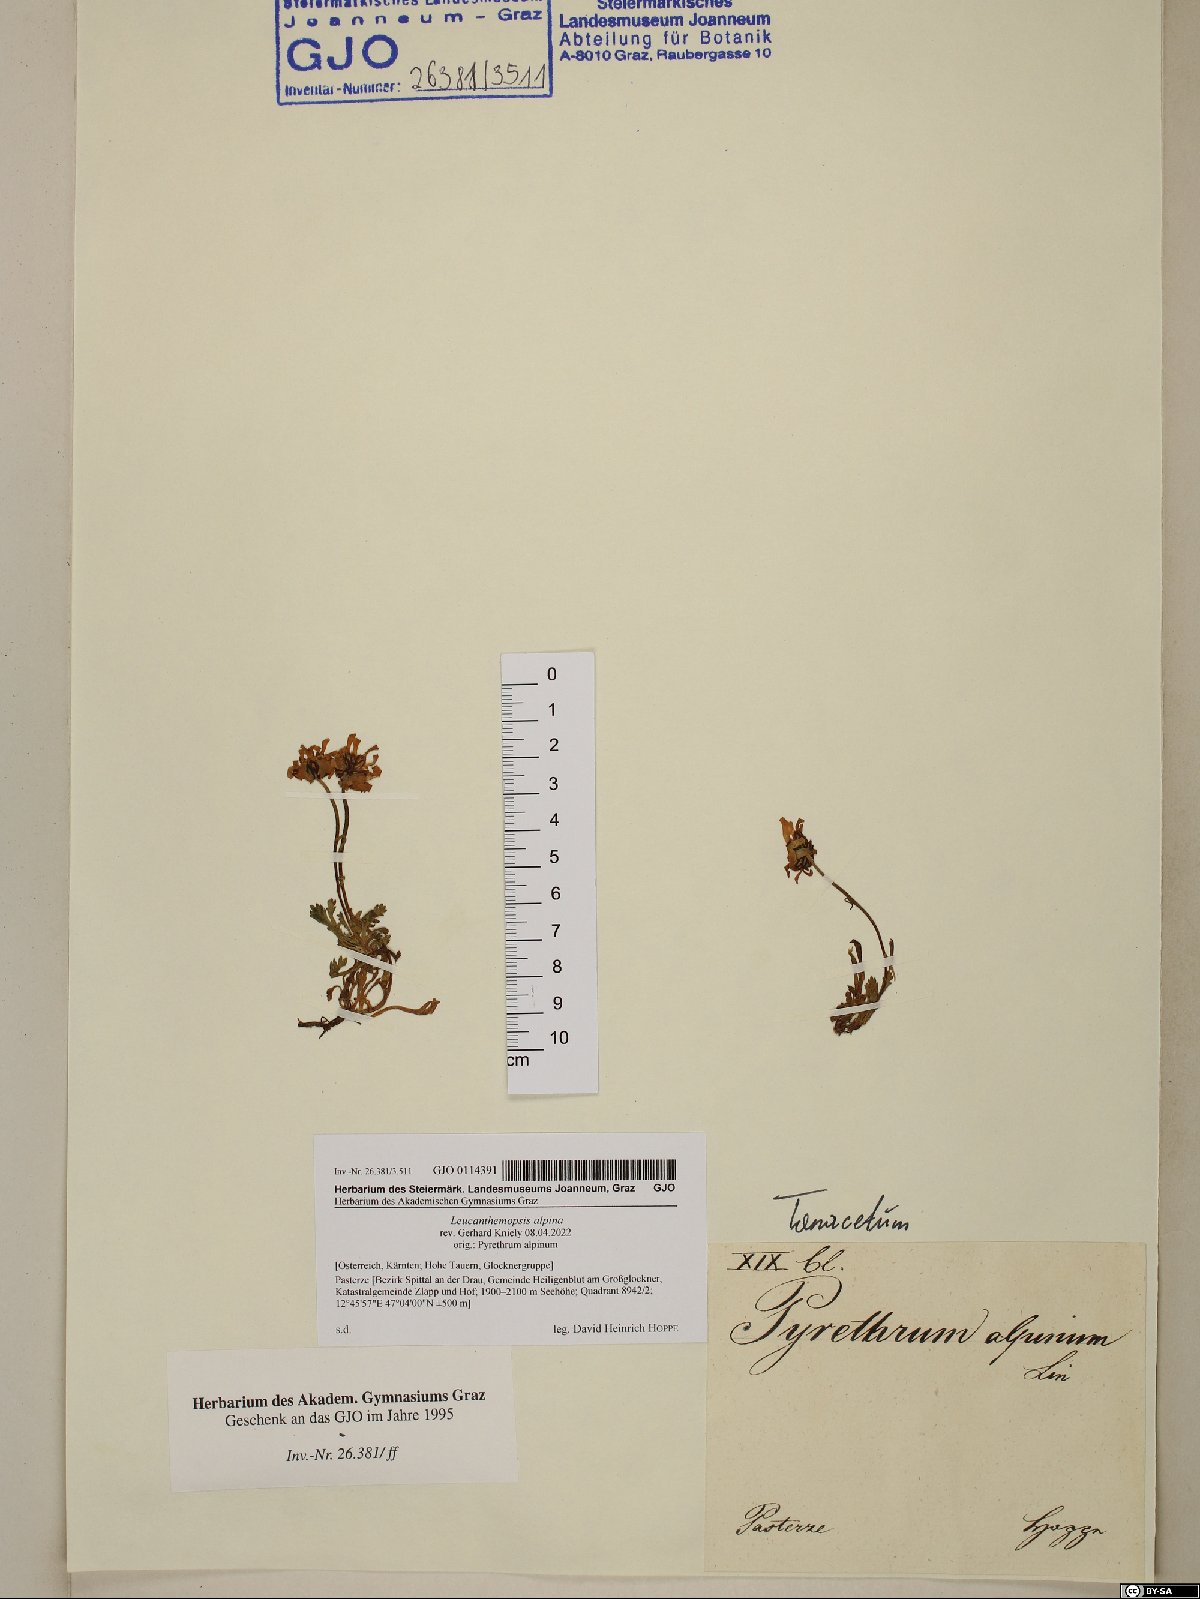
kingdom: Plantae
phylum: Tracheophyta
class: Magnoliopsida
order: Asterales
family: Asteraceae
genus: Leucanthemopsis
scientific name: Leucanthemopsis alpina
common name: Alpine moon daisy
